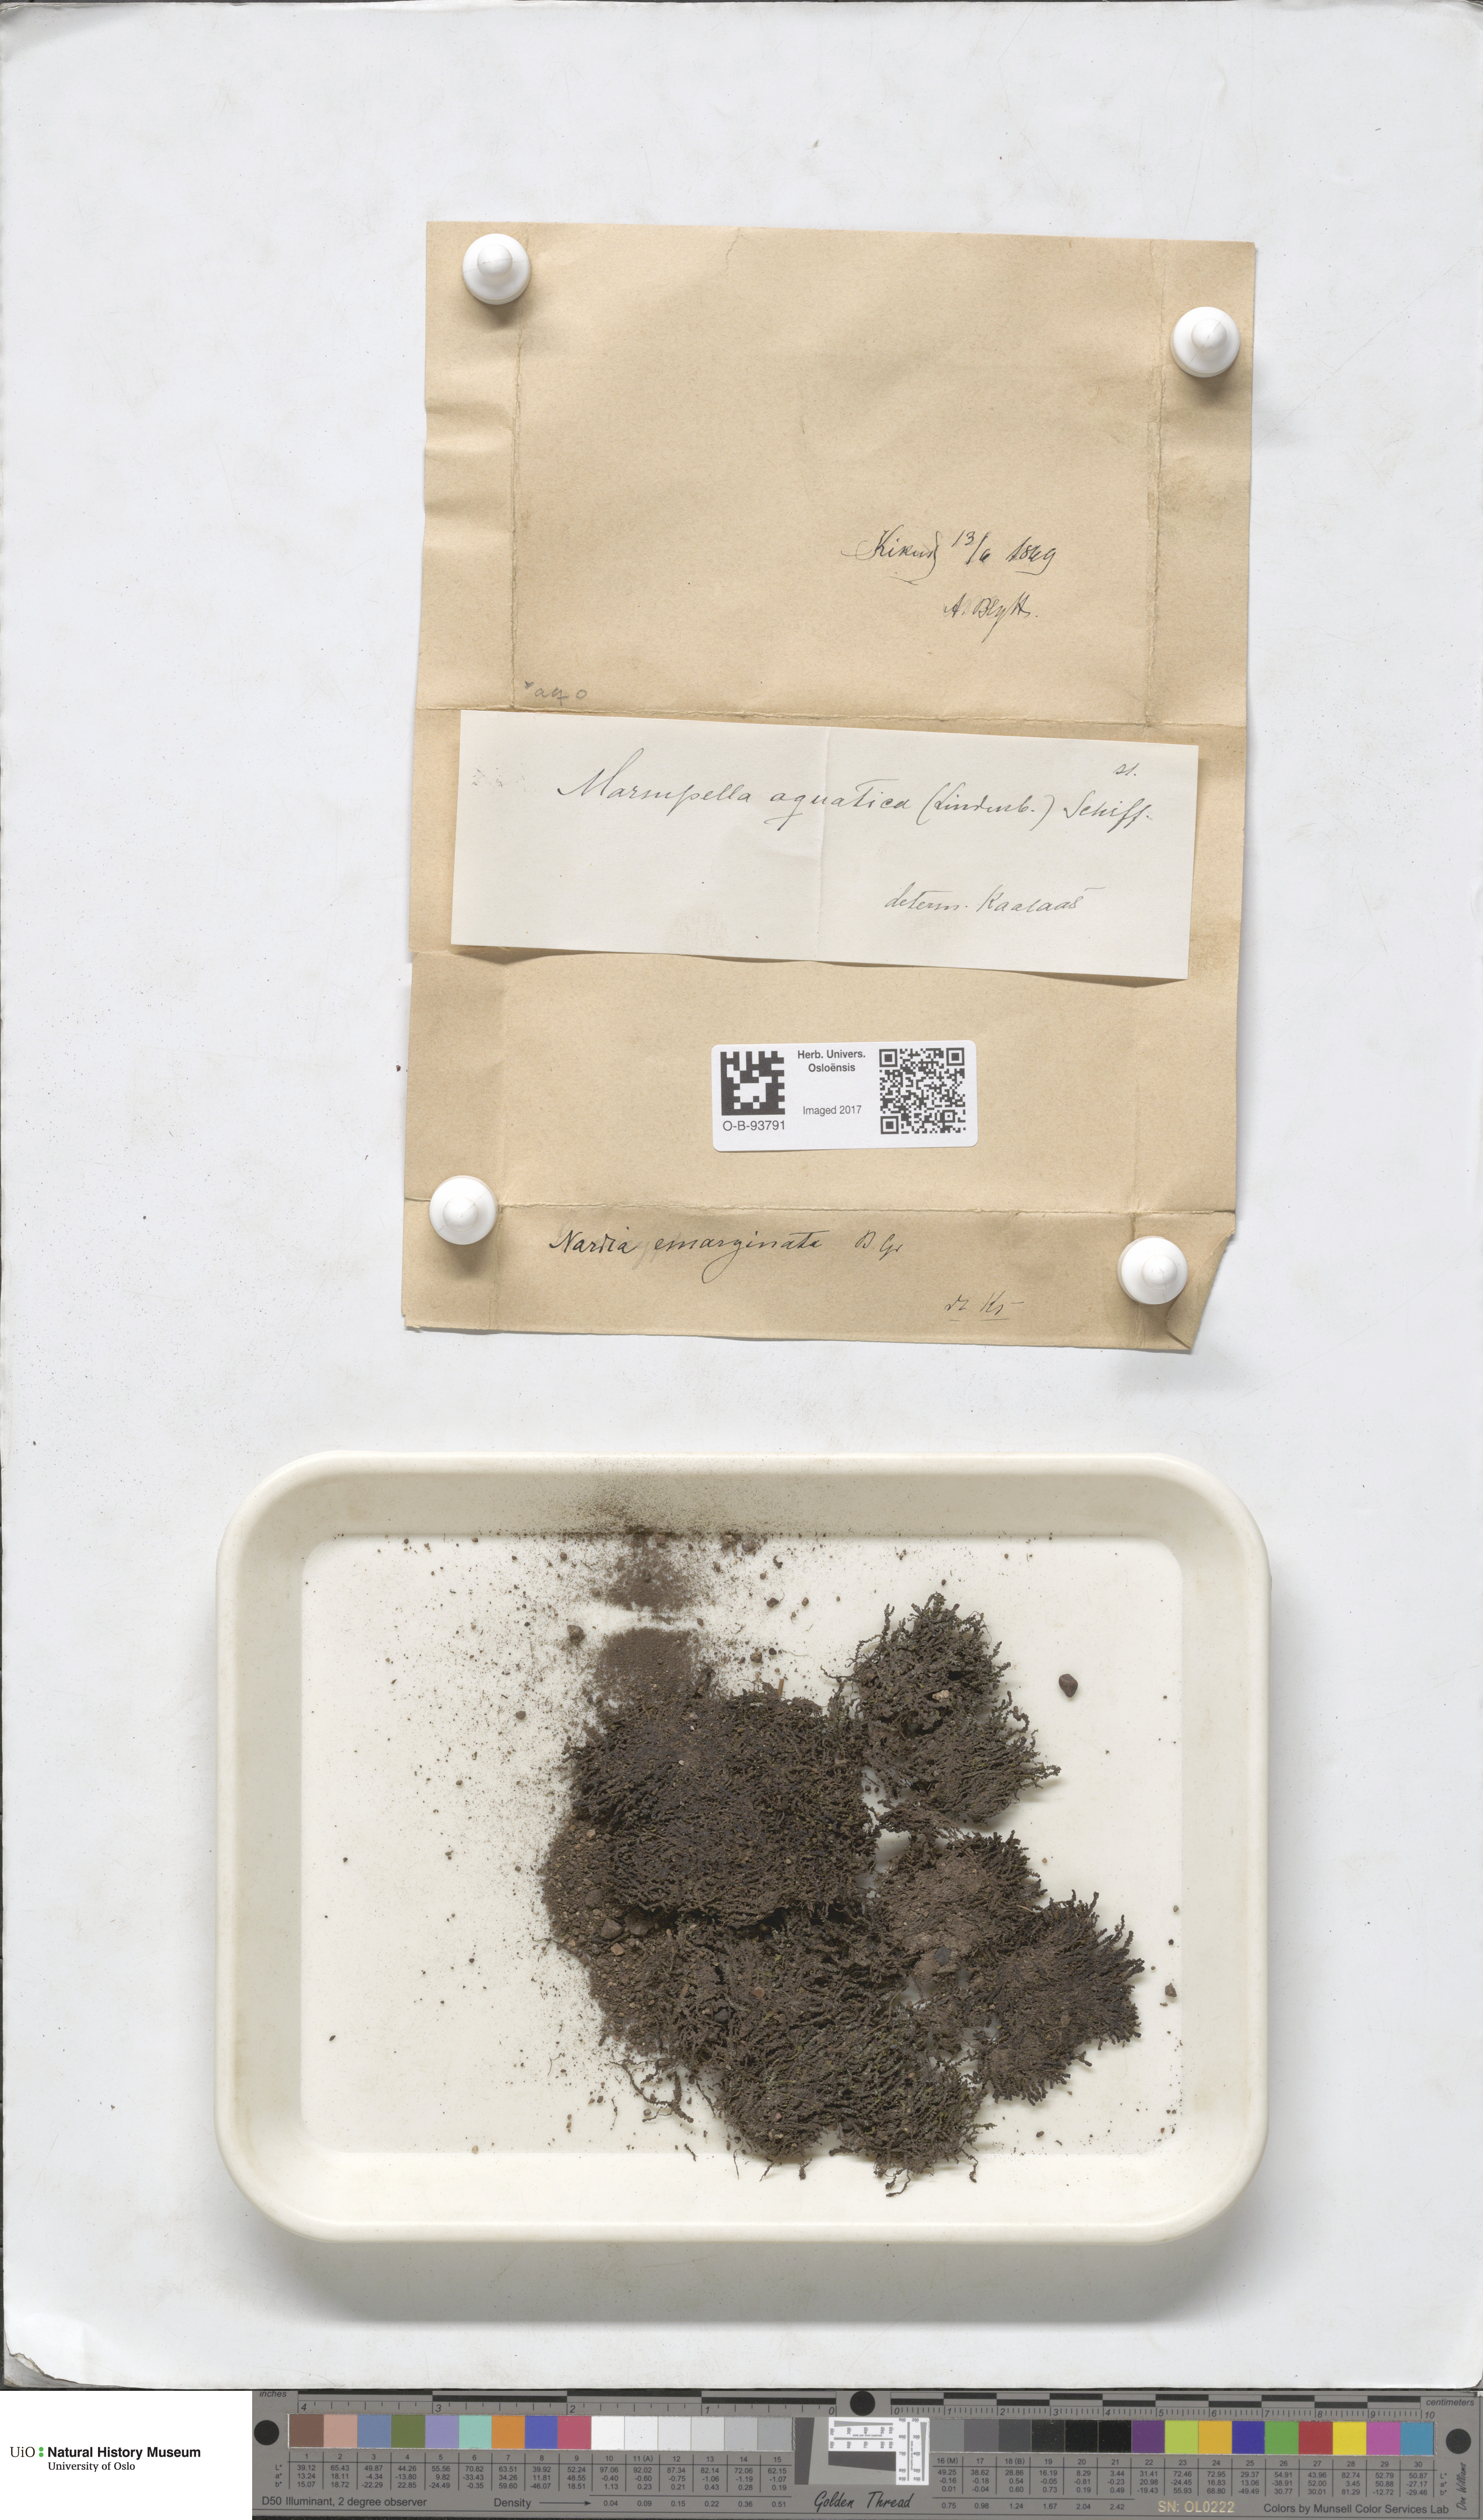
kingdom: Plantae
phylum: Marchantiophyta
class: Jungermanniopsida
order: Jungermanniales
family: Gymnomitriaceae
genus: Marsupella
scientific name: Marsupella emarginata
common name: Notched rustwort
